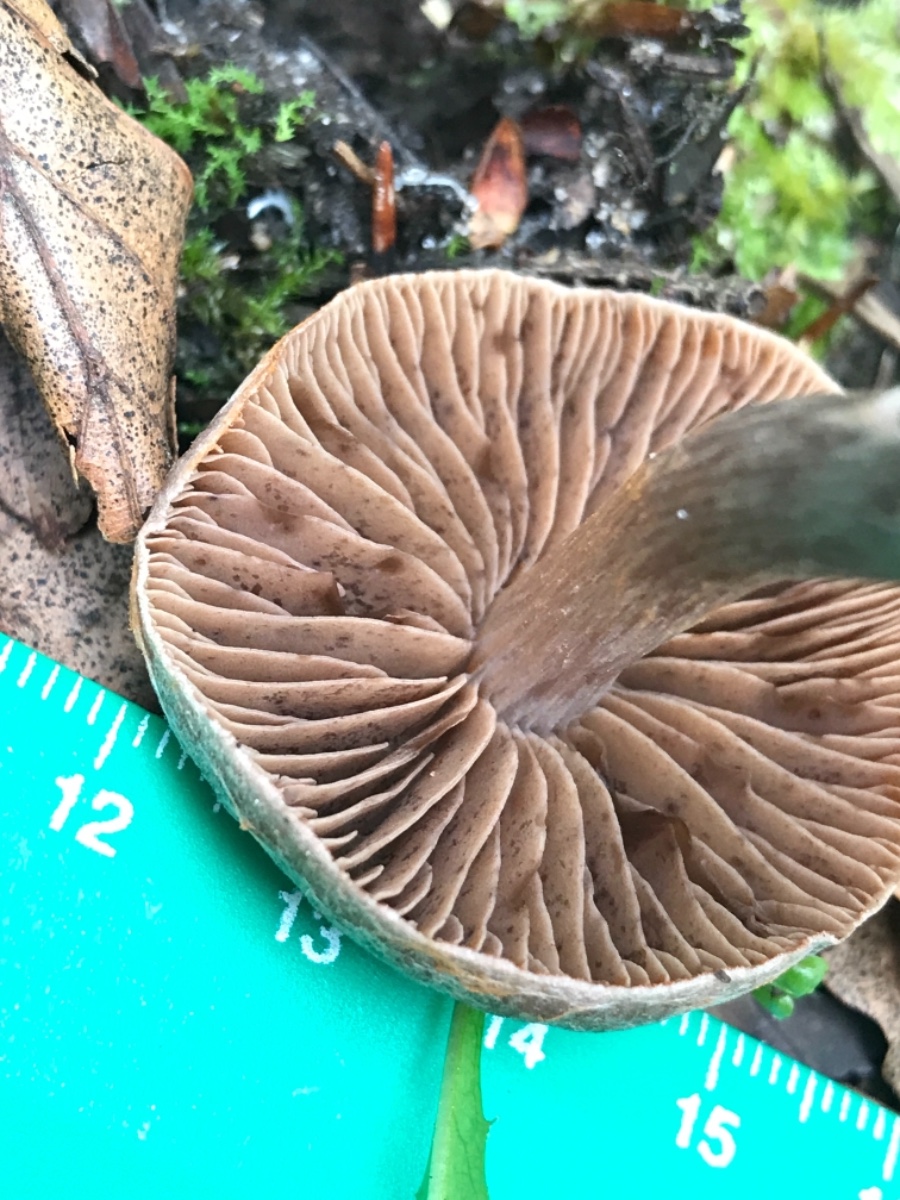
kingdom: Fungi
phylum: Basidiomycota
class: Agaricomycetes
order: Agaricales
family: Cortinariaceae
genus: Cortinarius
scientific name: Cortinarius
